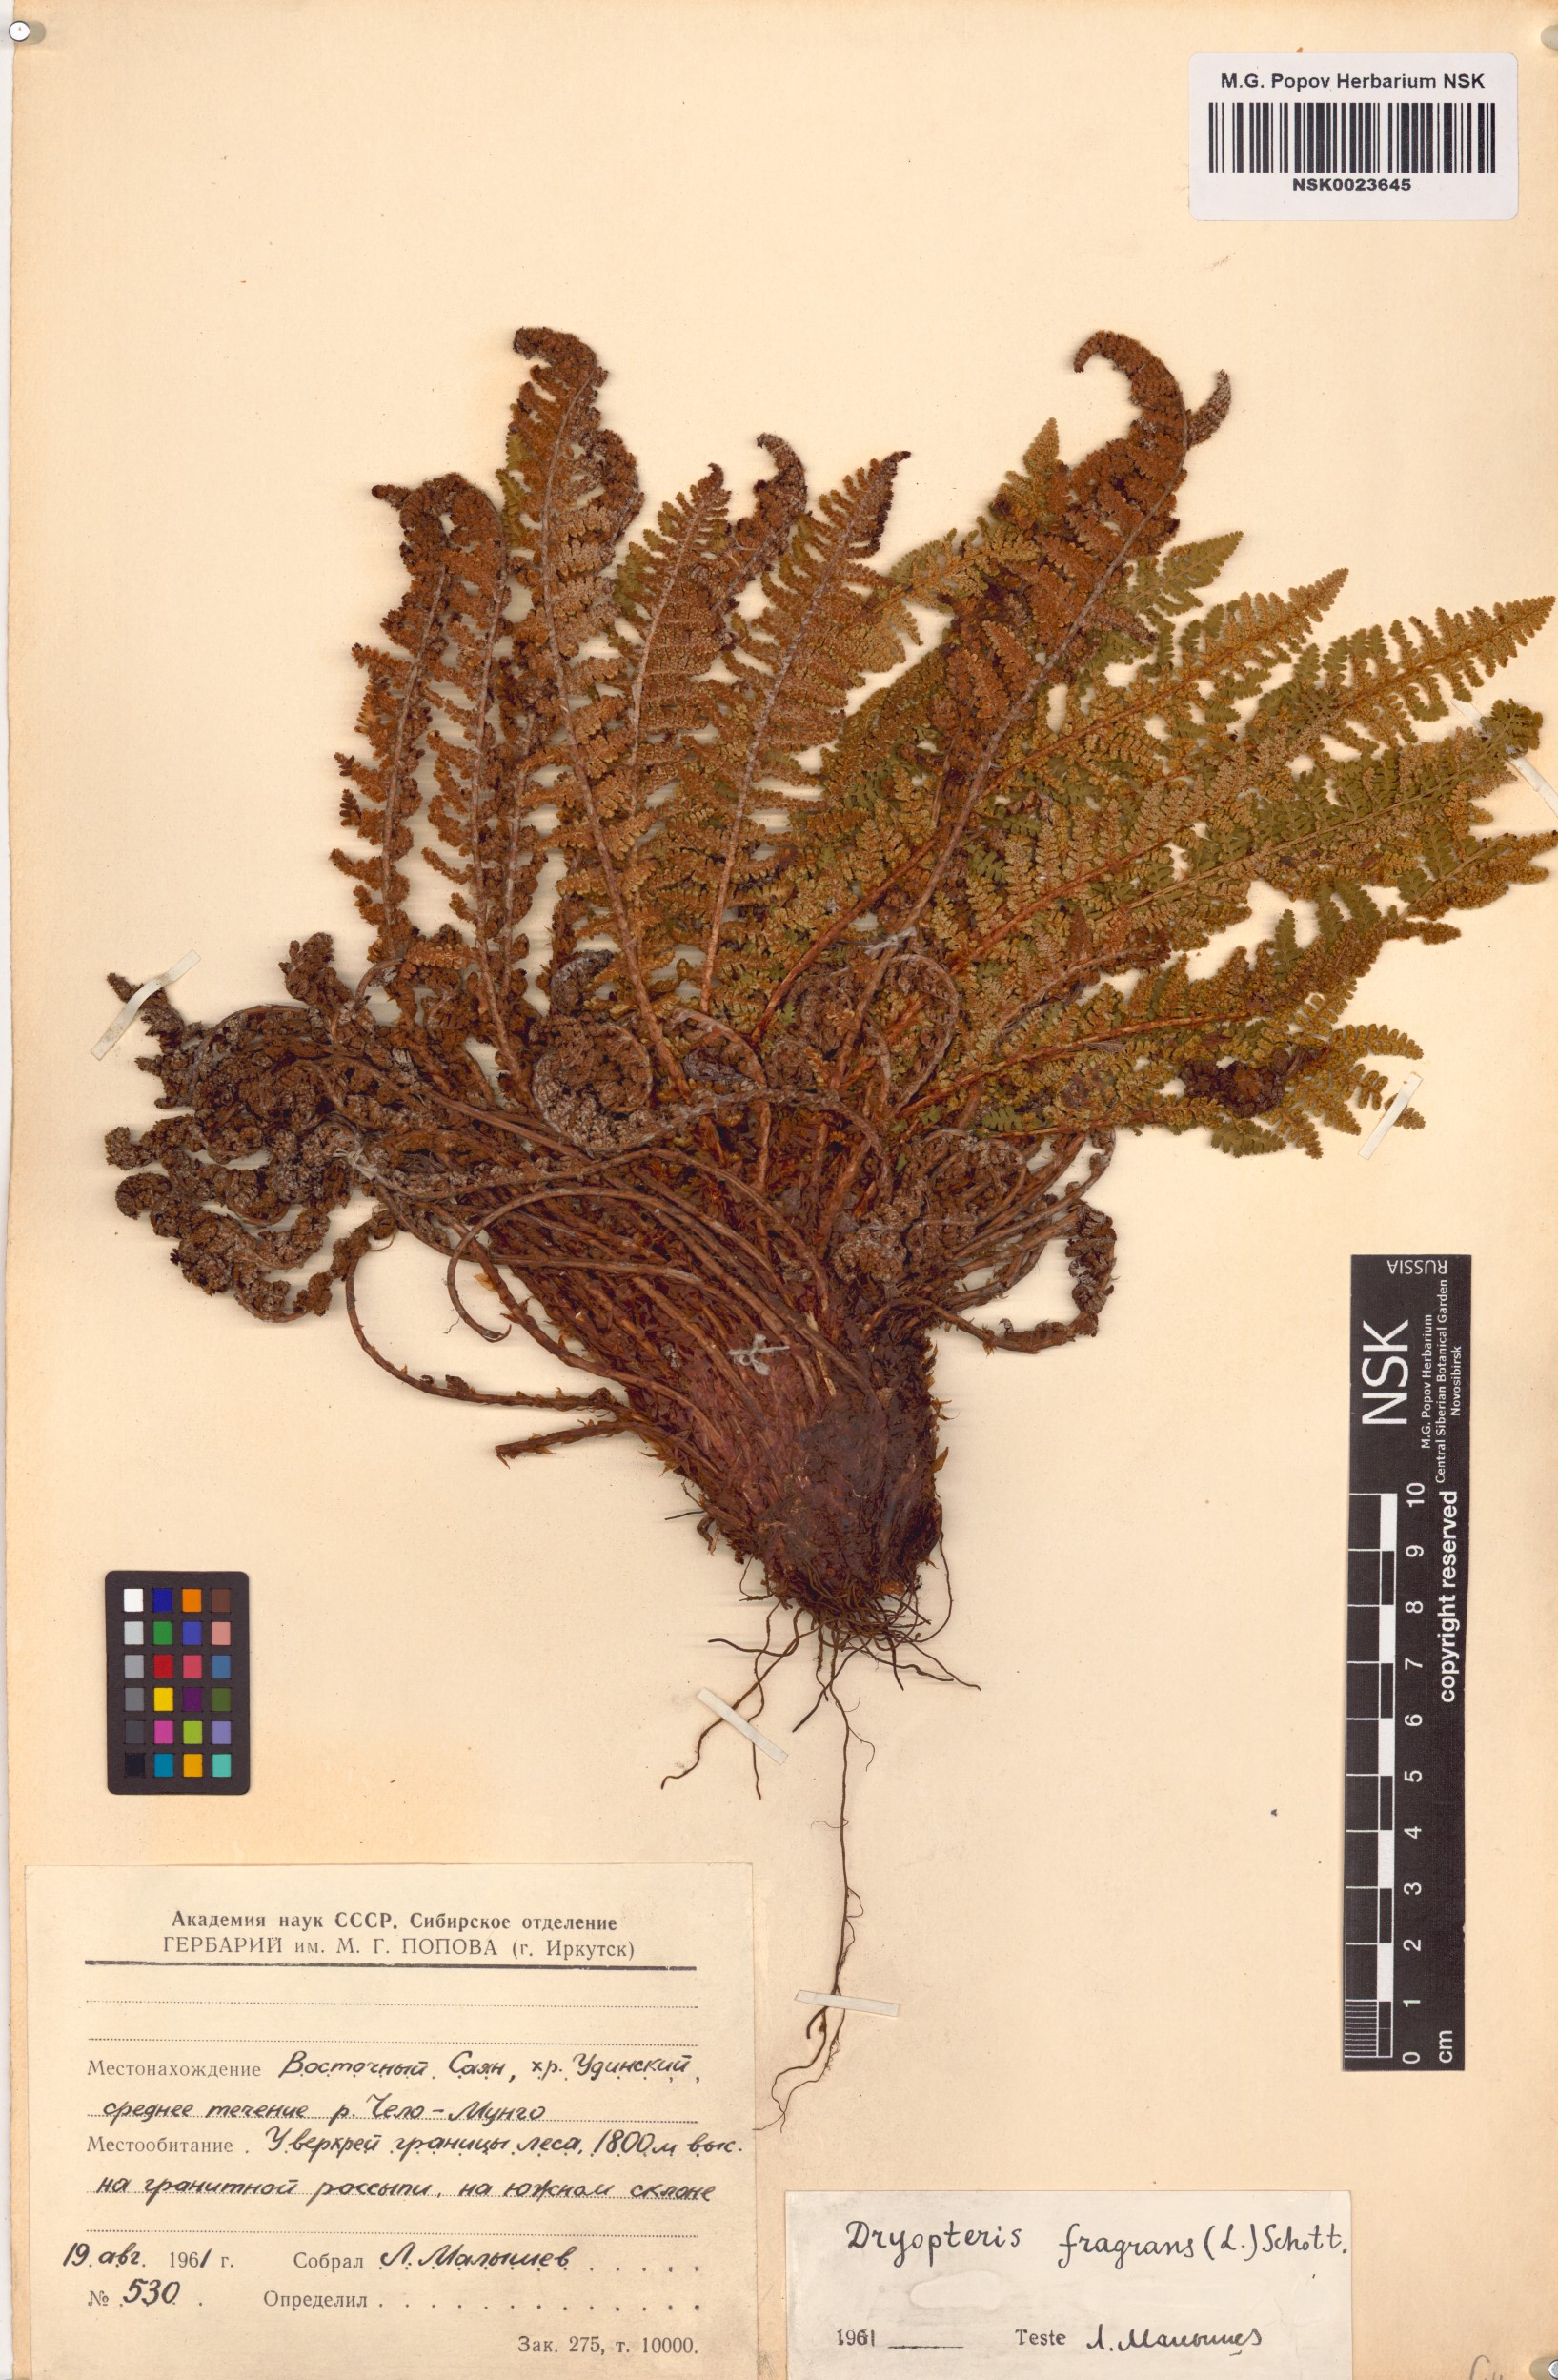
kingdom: Plantae
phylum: Tracheophyta
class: Polypodiopsida
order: Polypodiales
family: Dryopteridaceae
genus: Dryopteris
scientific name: Dryopteris fragrans
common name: Fragrant wood fern
